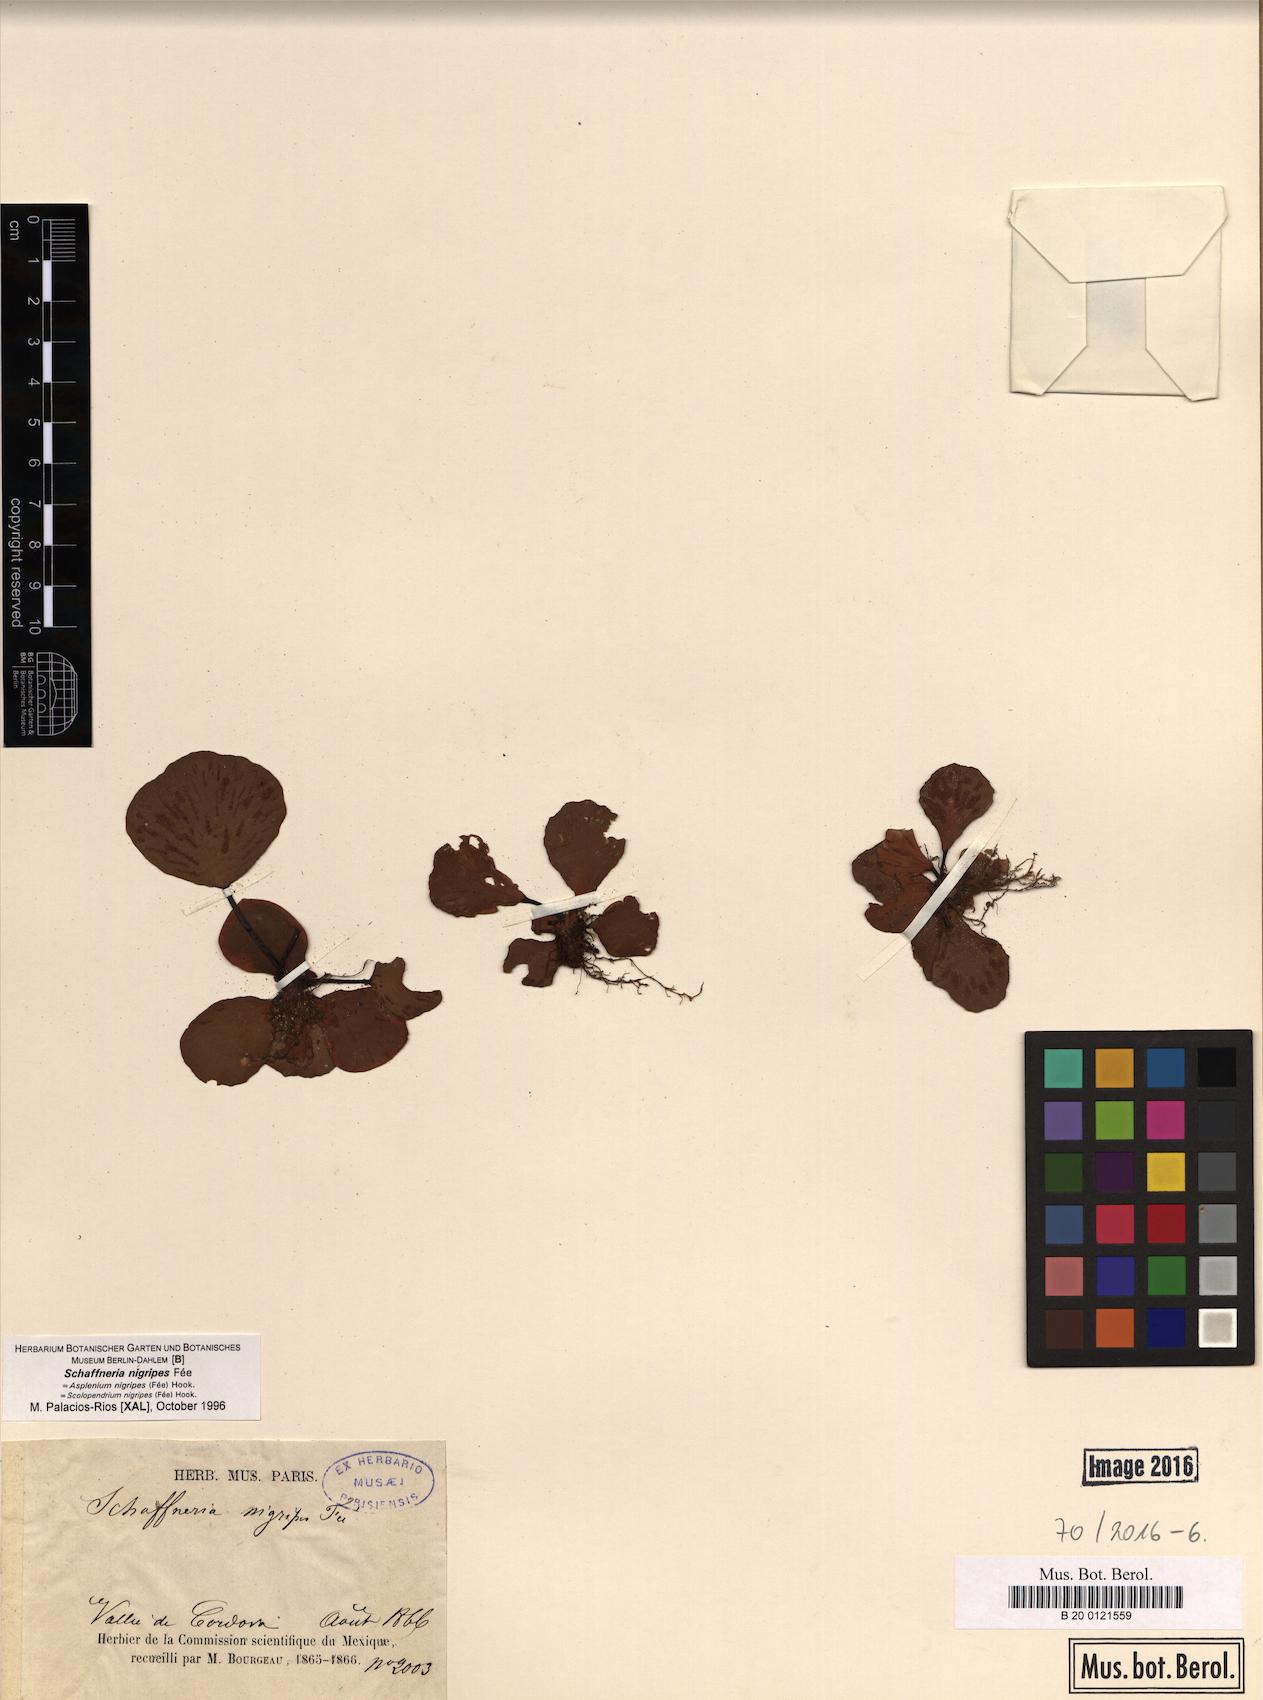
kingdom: Plantae
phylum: Tracheophyta
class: Polypodiopsida
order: Polypodiales
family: Aspleniaceae
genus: Asplenium
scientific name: Asplenium nigripes
